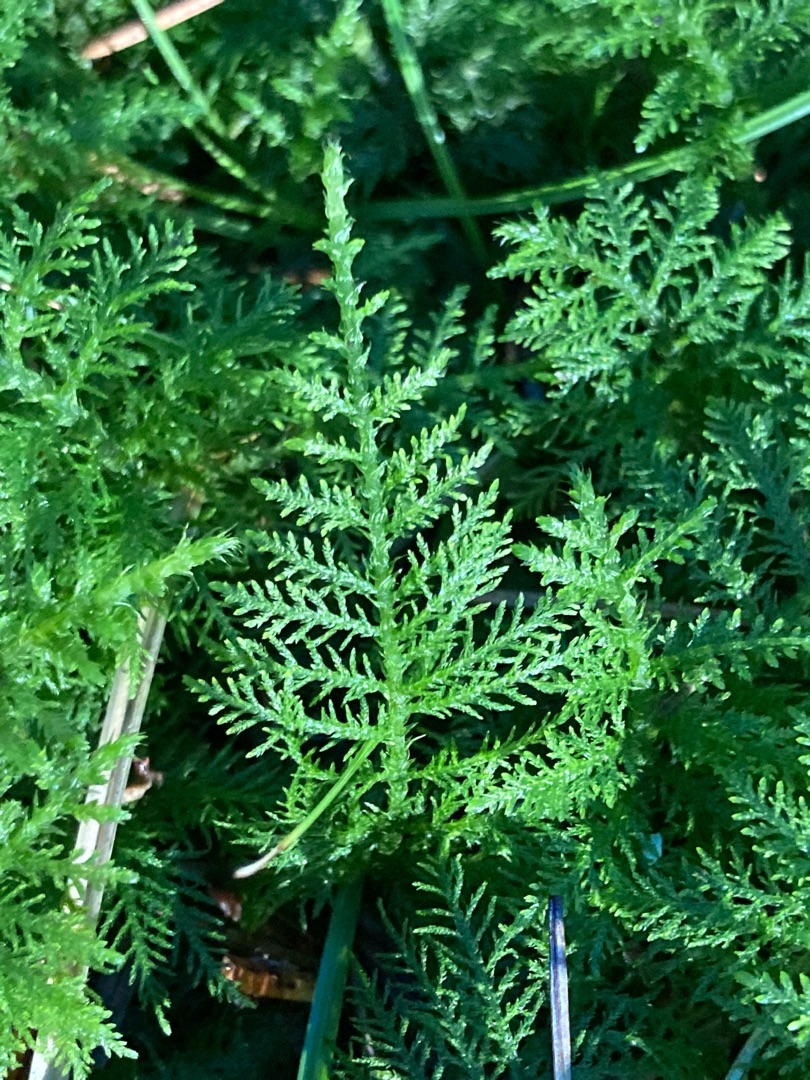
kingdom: Plantae
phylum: Bryophyta
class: Bryopsida
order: Hypnales
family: Thuidiaceae
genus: Thuidium
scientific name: Thuidium tamariscinum
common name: Pryd-bregnemos
